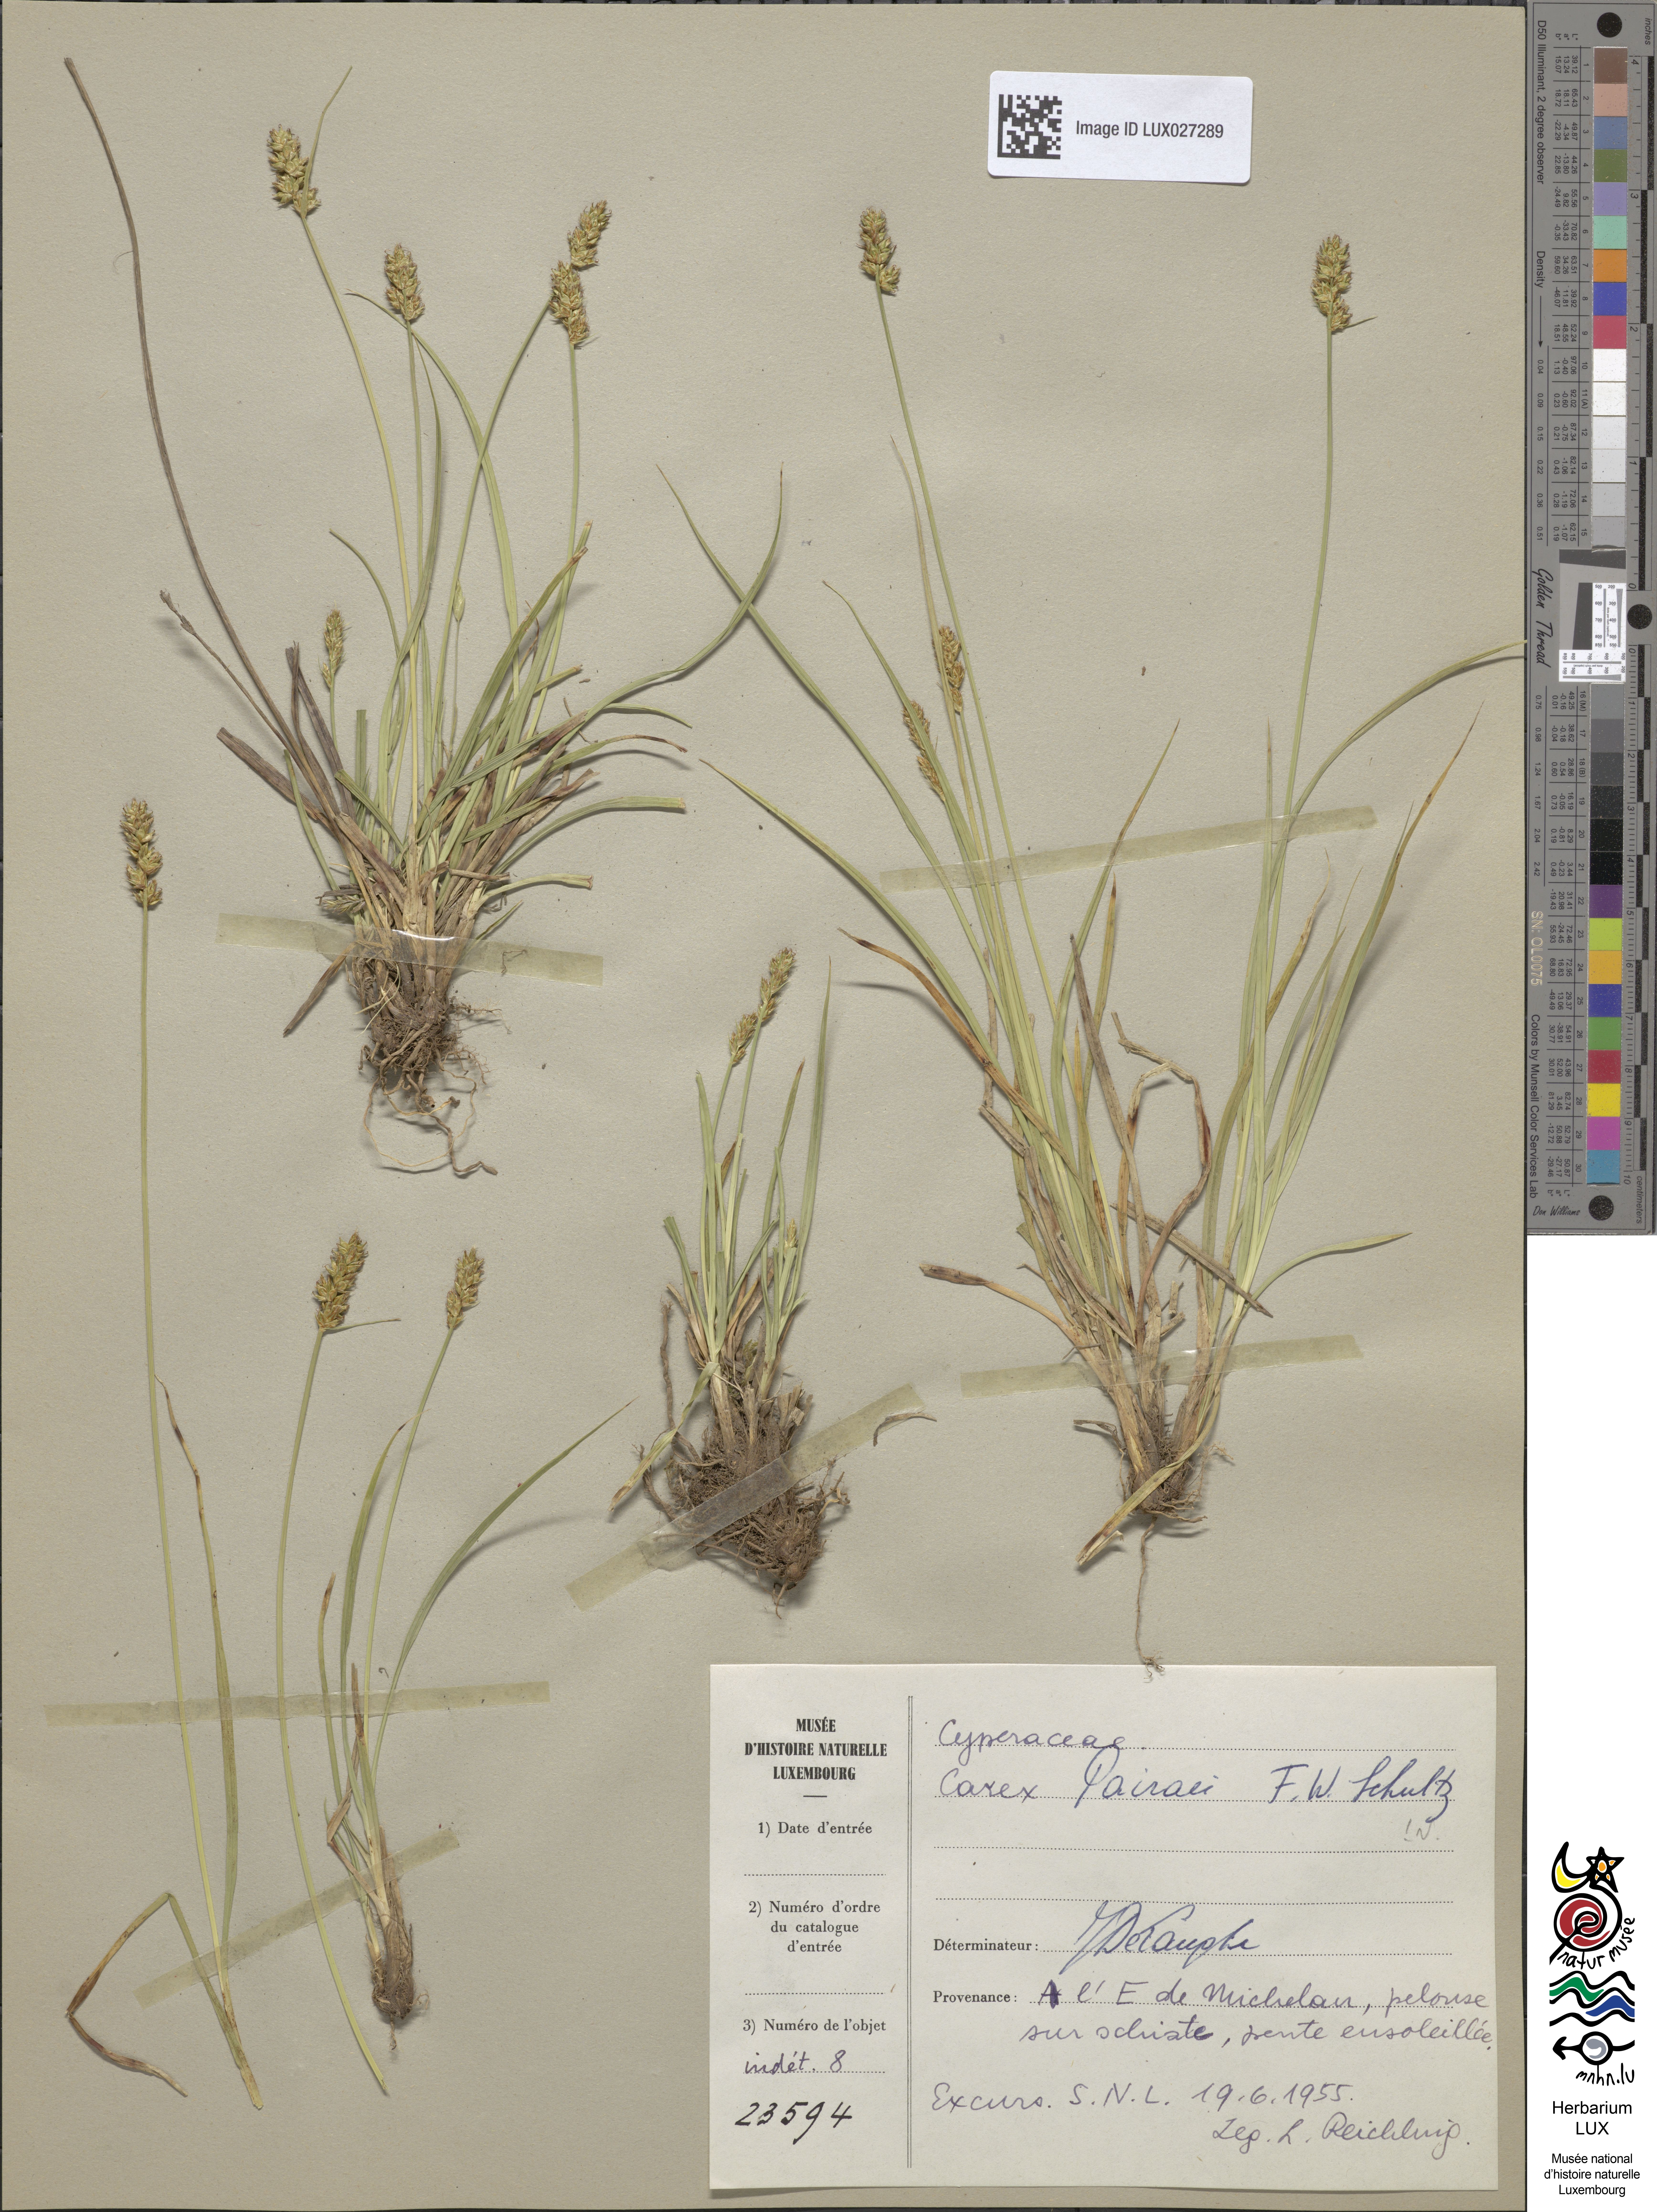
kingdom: Plantae
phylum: Tracheophyta
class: Liliopsida
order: Poales
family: Cyperaceae
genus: Carex
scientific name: Carex pairae
